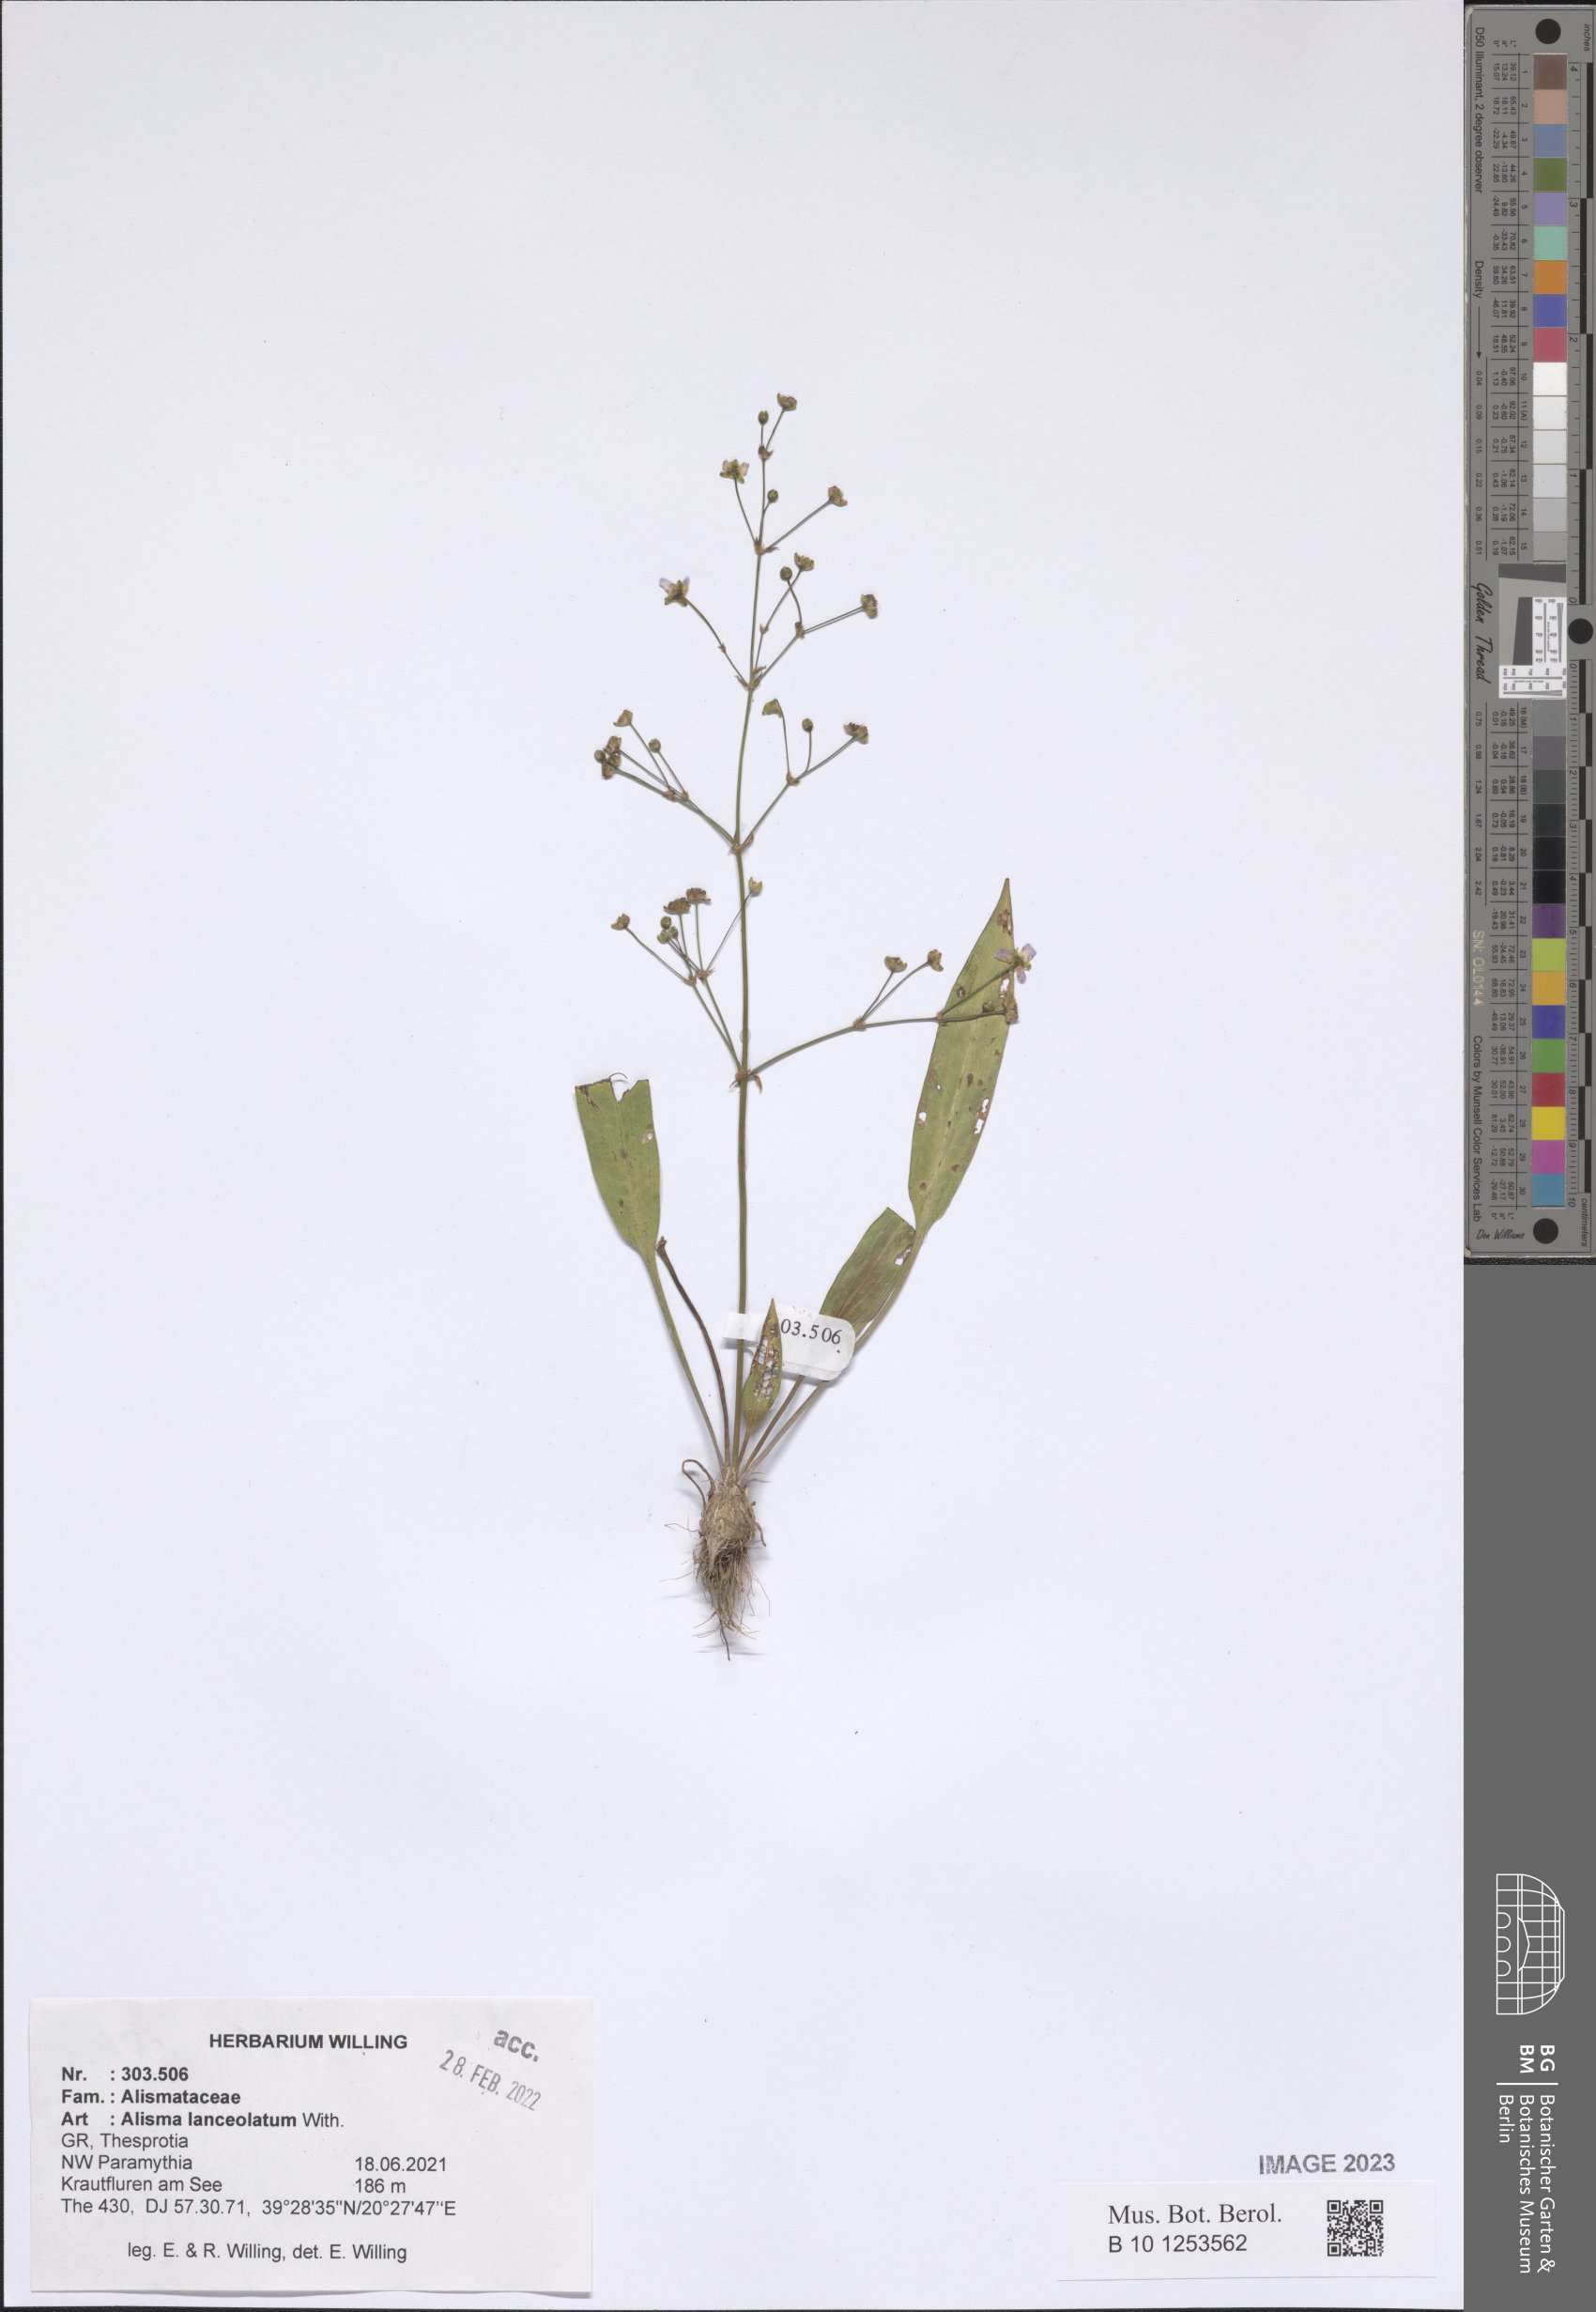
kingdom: Plantae
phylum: Tracheophyta
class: Liliopsida
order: Alismatales
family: Alismataceae
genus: Alisma
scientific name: Alisma lanceolatum
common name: Narrow-leaved water-plantain
